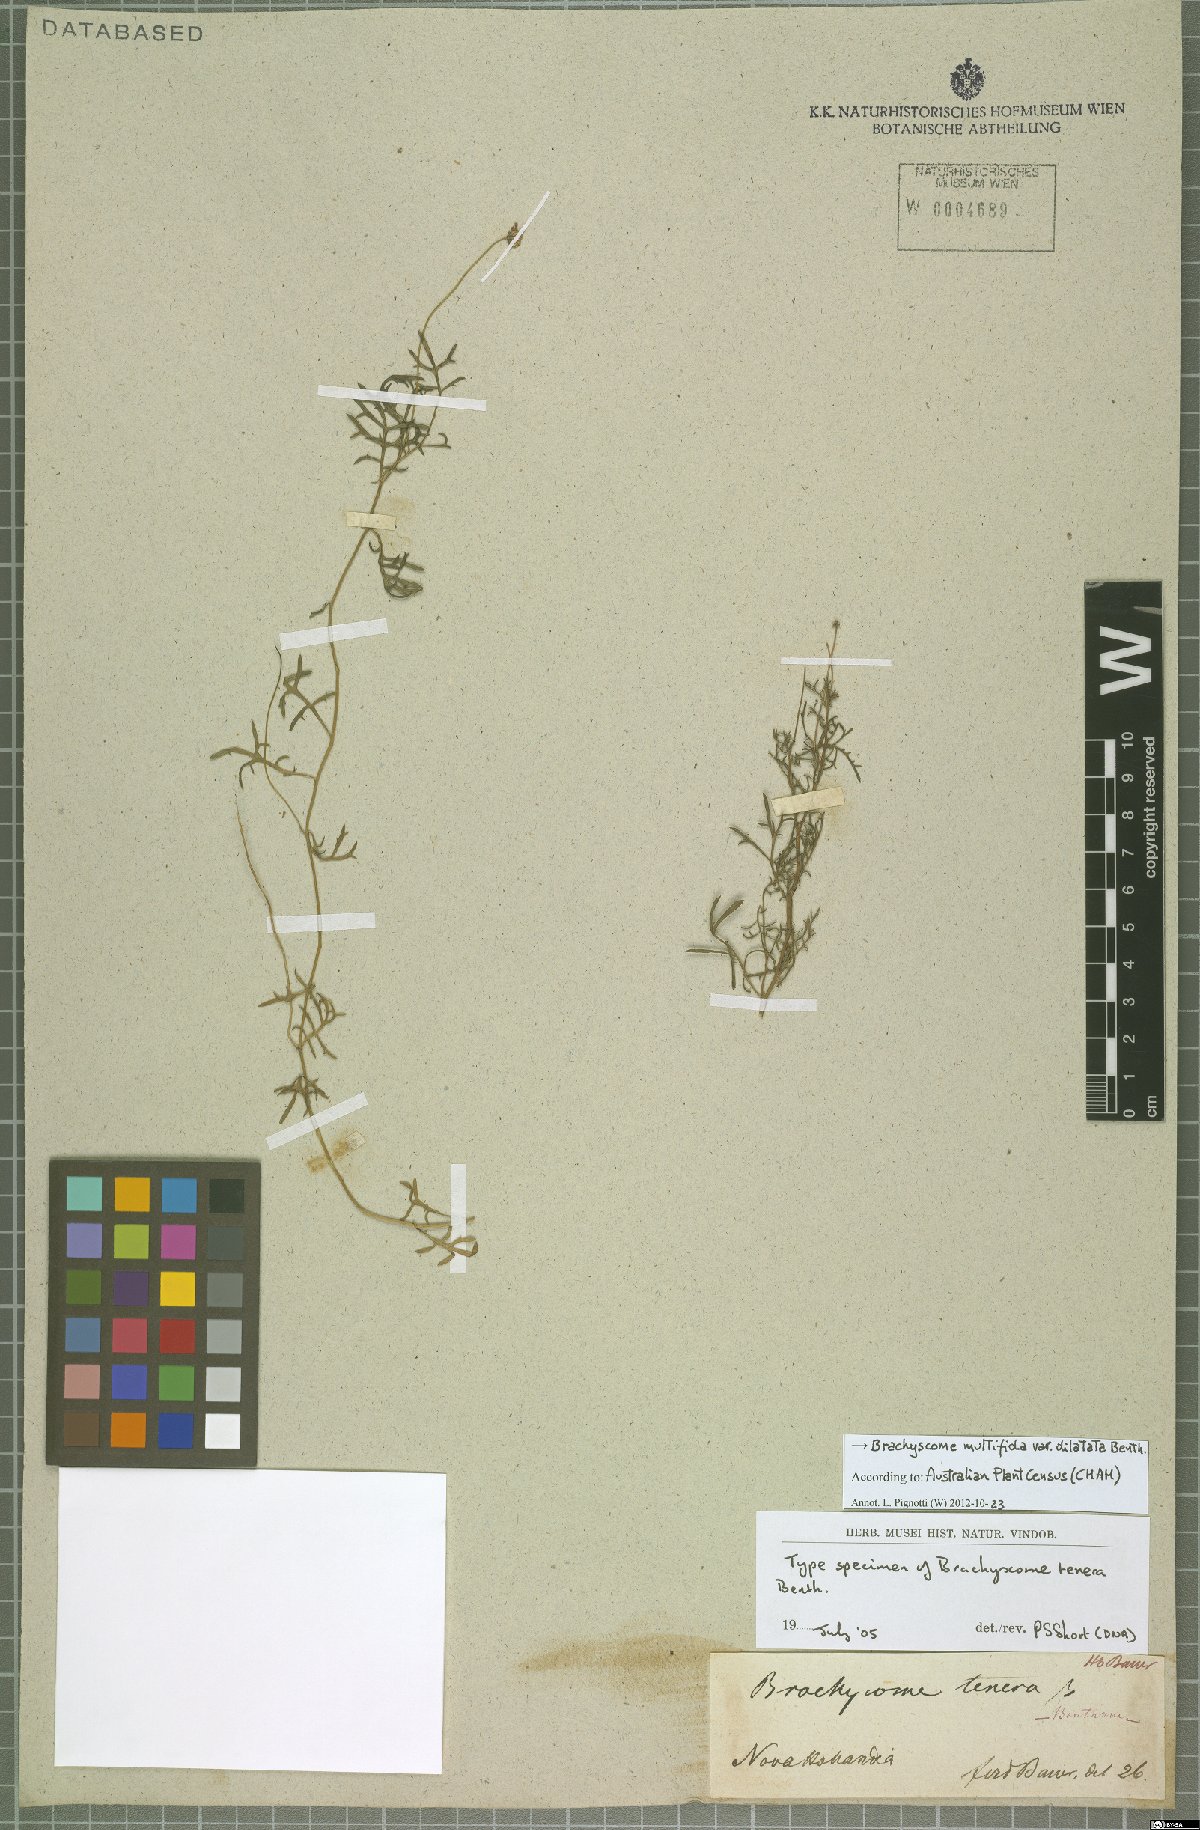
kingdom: Plantae
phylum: Tracheophyta
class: Magnoliopsida
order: Asterales
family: Asteraceae
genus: Brachyscome
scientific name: Brachyscome multifida
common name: Cut-leaf daisy
